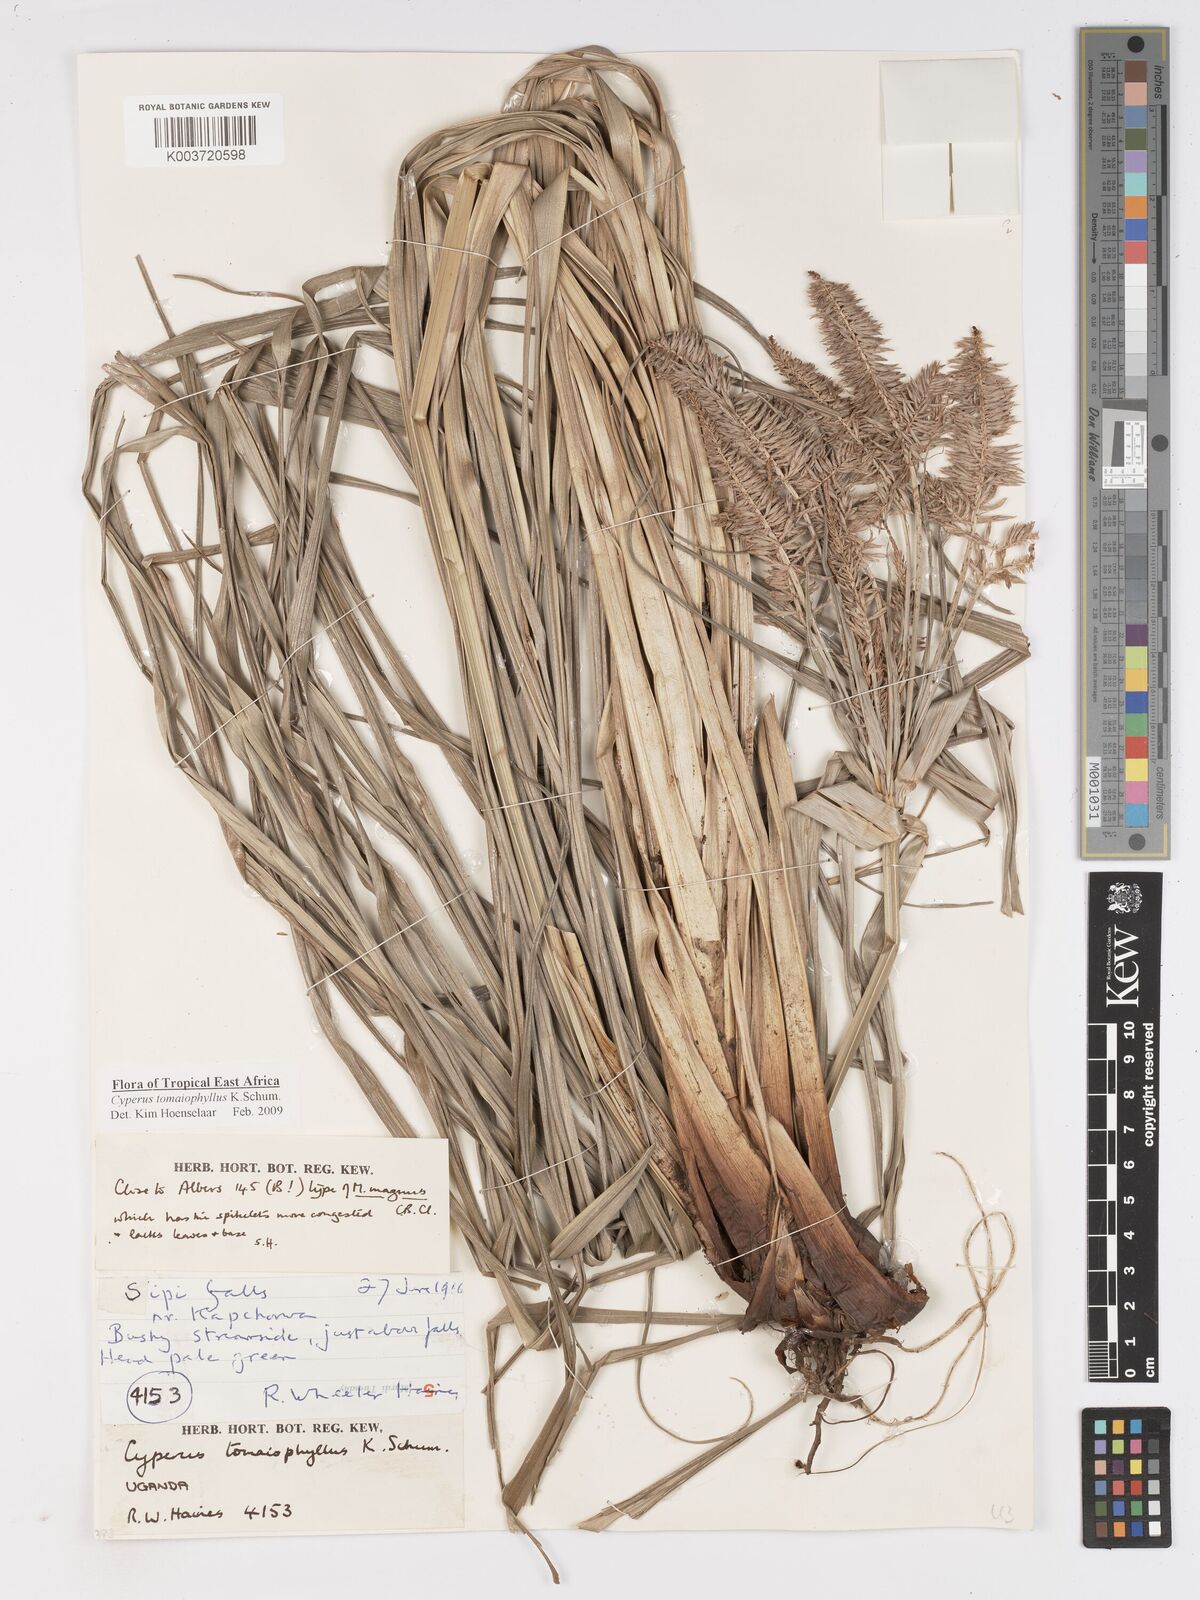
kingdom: Plantae
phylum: Tracheophyta
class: Liliopsida
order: Poales
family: Cyperaceae
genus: Cyperus
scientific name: Cyperus tomaiophyllus
